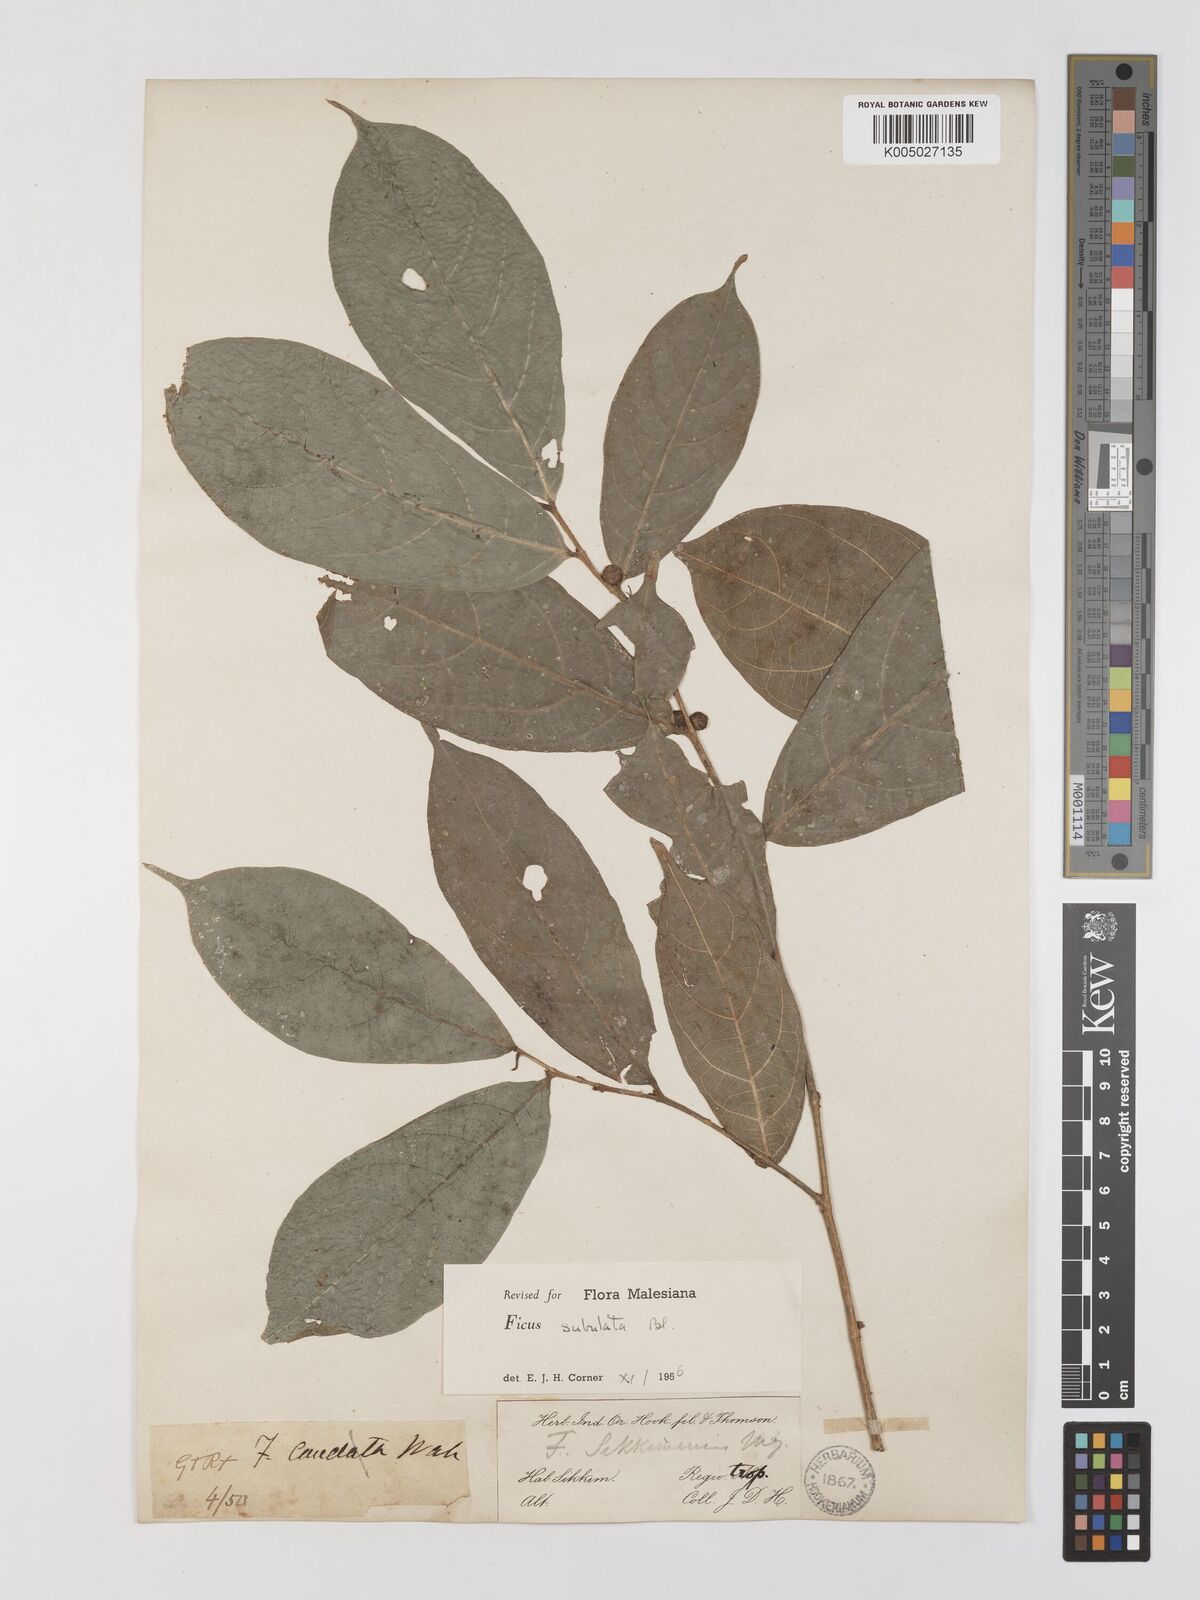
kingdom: Plantae
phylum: Tracheophyta
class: Magnoliopsida
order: Rosales
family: Moraceae
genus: Ficus
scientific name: Ficus subulata
